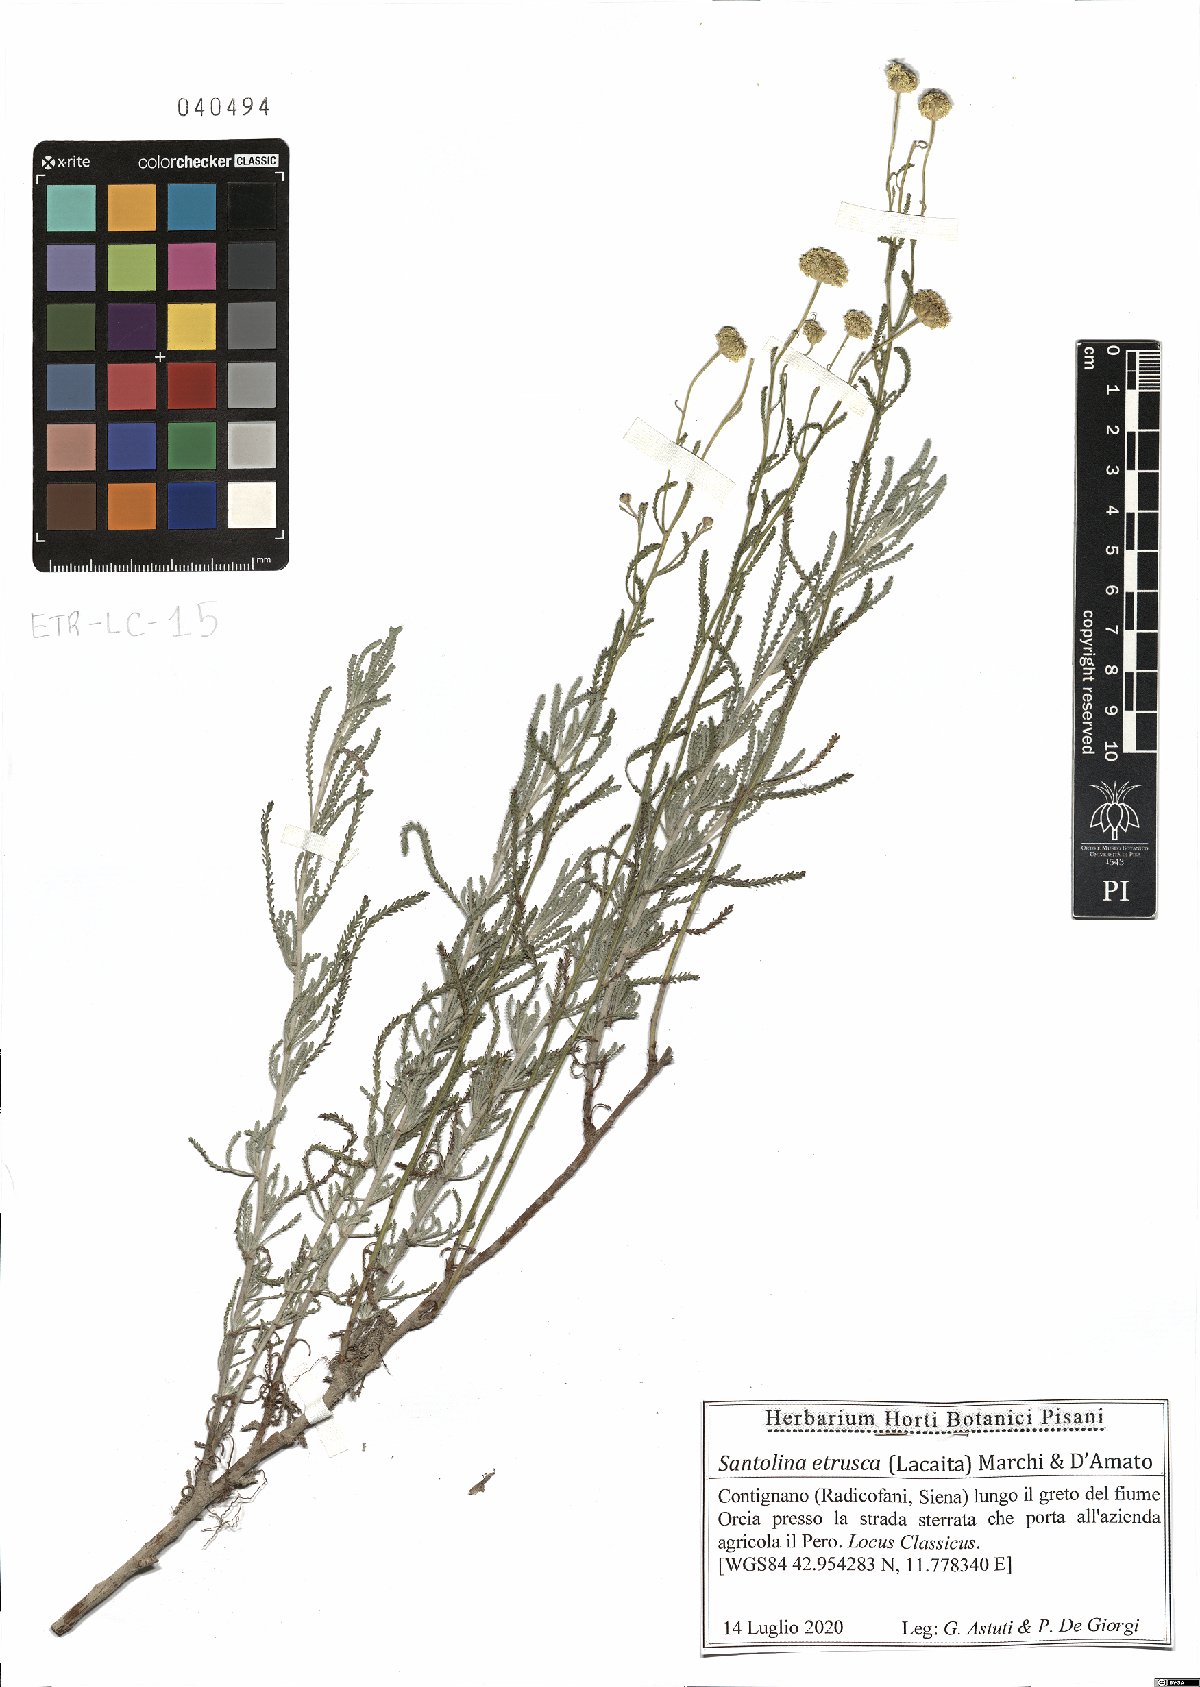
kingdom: Plantae
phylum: Tracheophyta
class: Magnoliopsida
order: Asterales
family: Asteraceae
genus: Santolina
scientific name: Santolina etrusca
